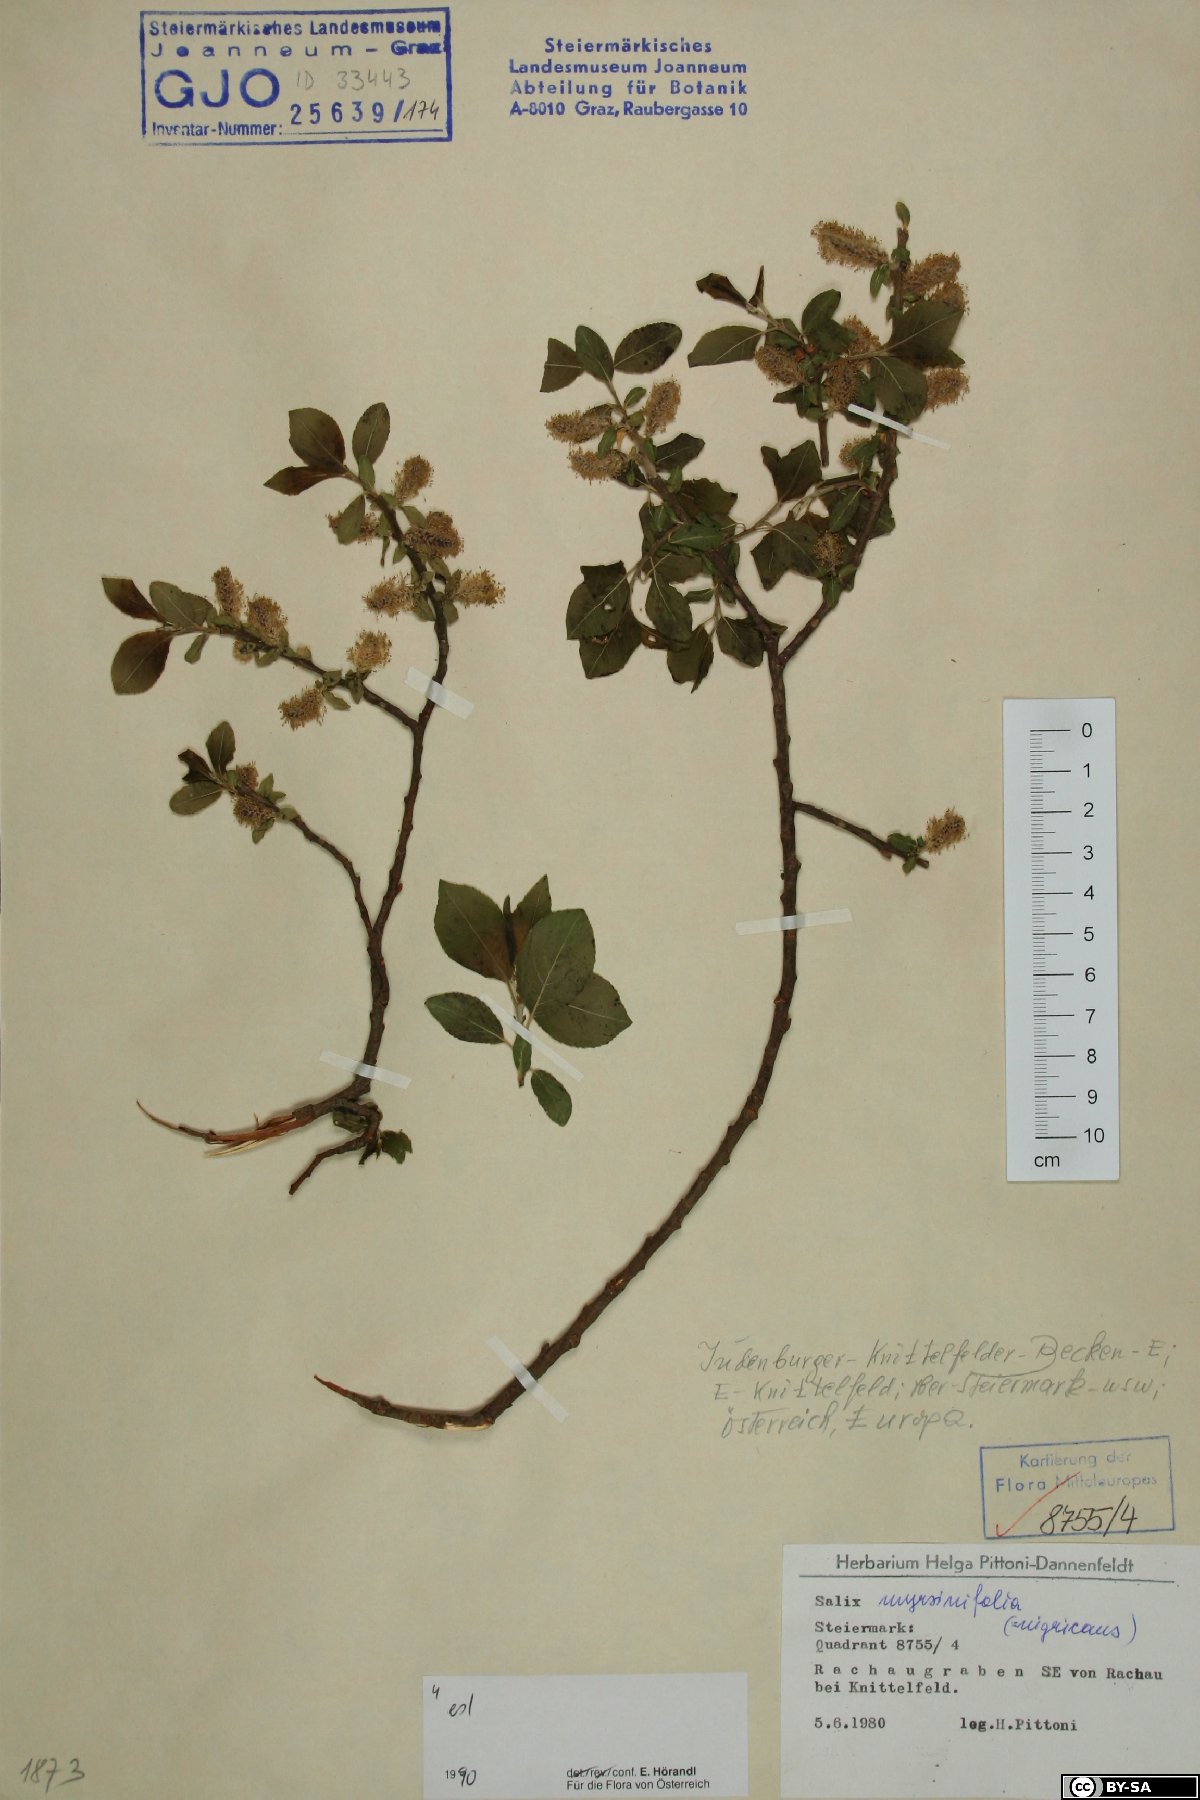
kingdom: Plantae
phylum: Tracheophyta
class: Magnoliopsida
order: Malpighiales
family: Salicaceae
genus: Salix
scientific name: Salix myrsinifolia
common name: Dark-leaved willow
